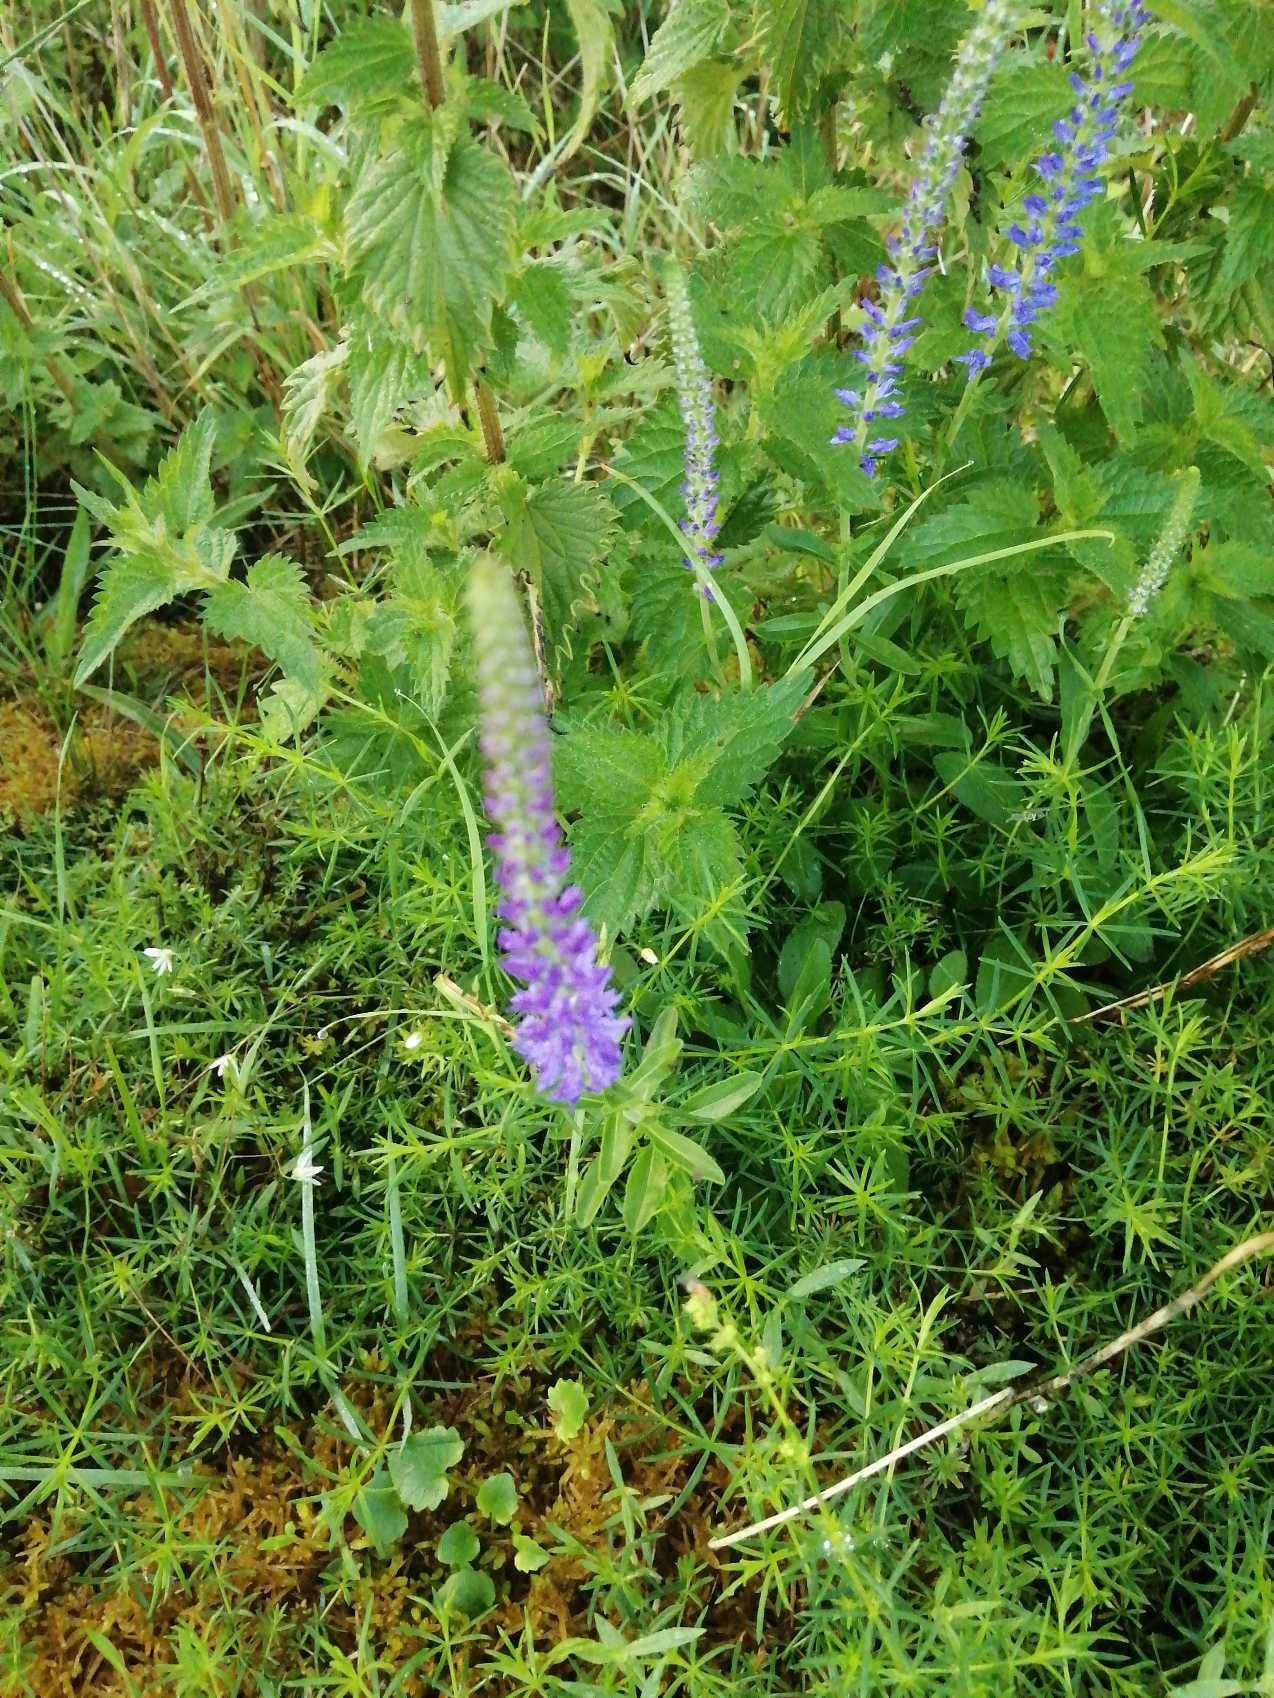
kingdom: Plantae
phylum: Tracheophyta
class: Magnoliopsida
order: Lamiales
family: Plantaginaceae
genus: Veronica
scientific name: Veronica spicata
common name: Aks-ærenpris
